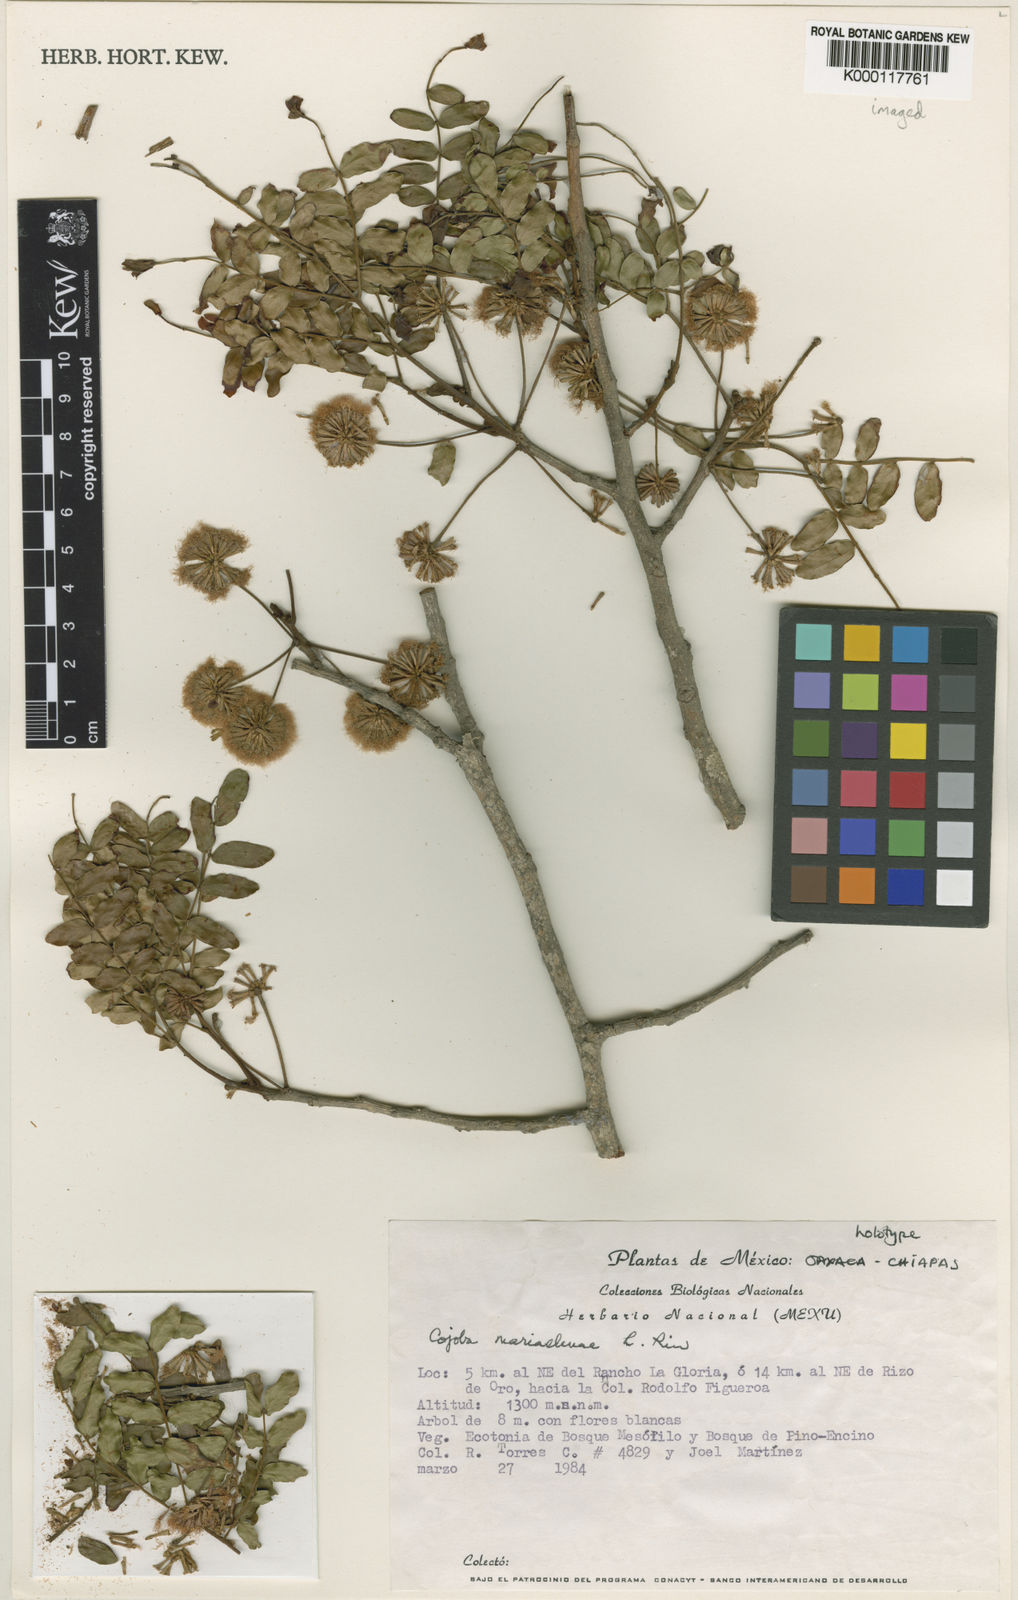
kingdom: Plantae
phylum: Tracheophyta
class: Magnoliopsida
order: Fabales
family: Fabaceae
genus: Cojoba
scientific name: Cojoba
